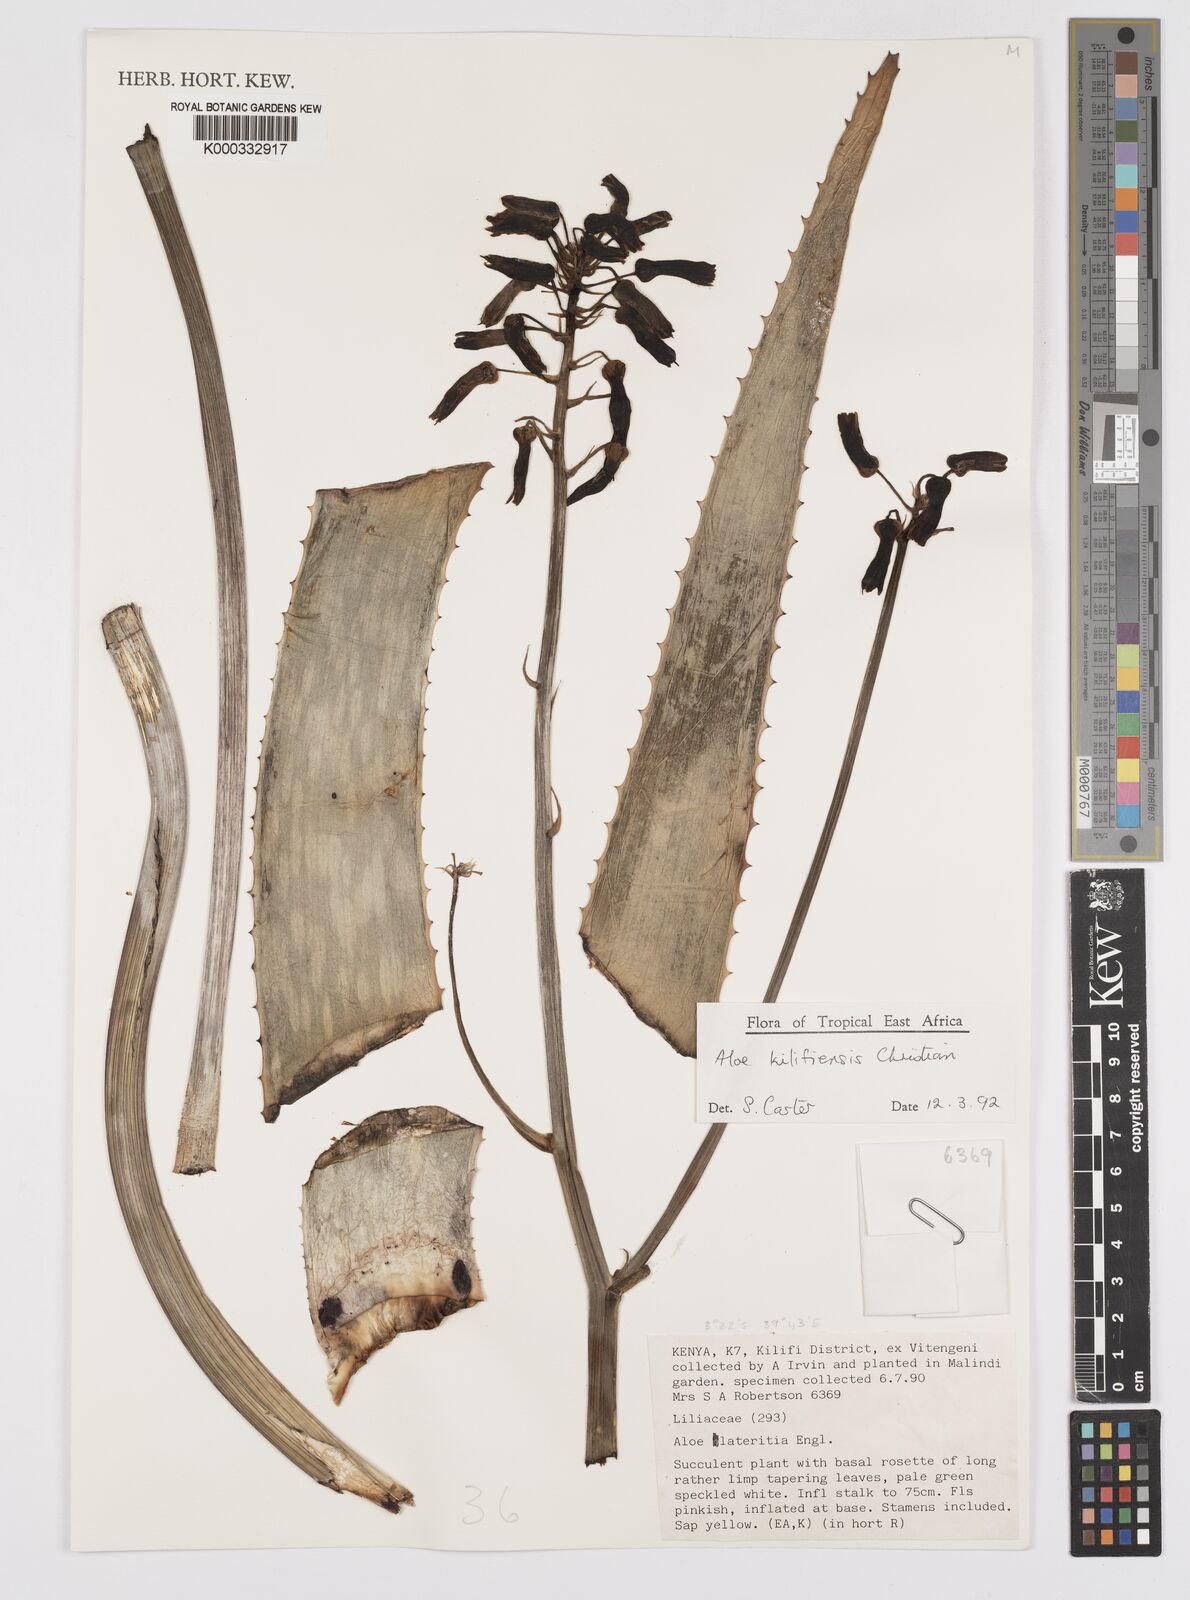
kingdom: Plantae
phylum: Tracheophyta
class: Liliopsida
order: Asparagales
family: Asphodelaceae
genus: Aloe
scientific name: Aloe kilifiensis
